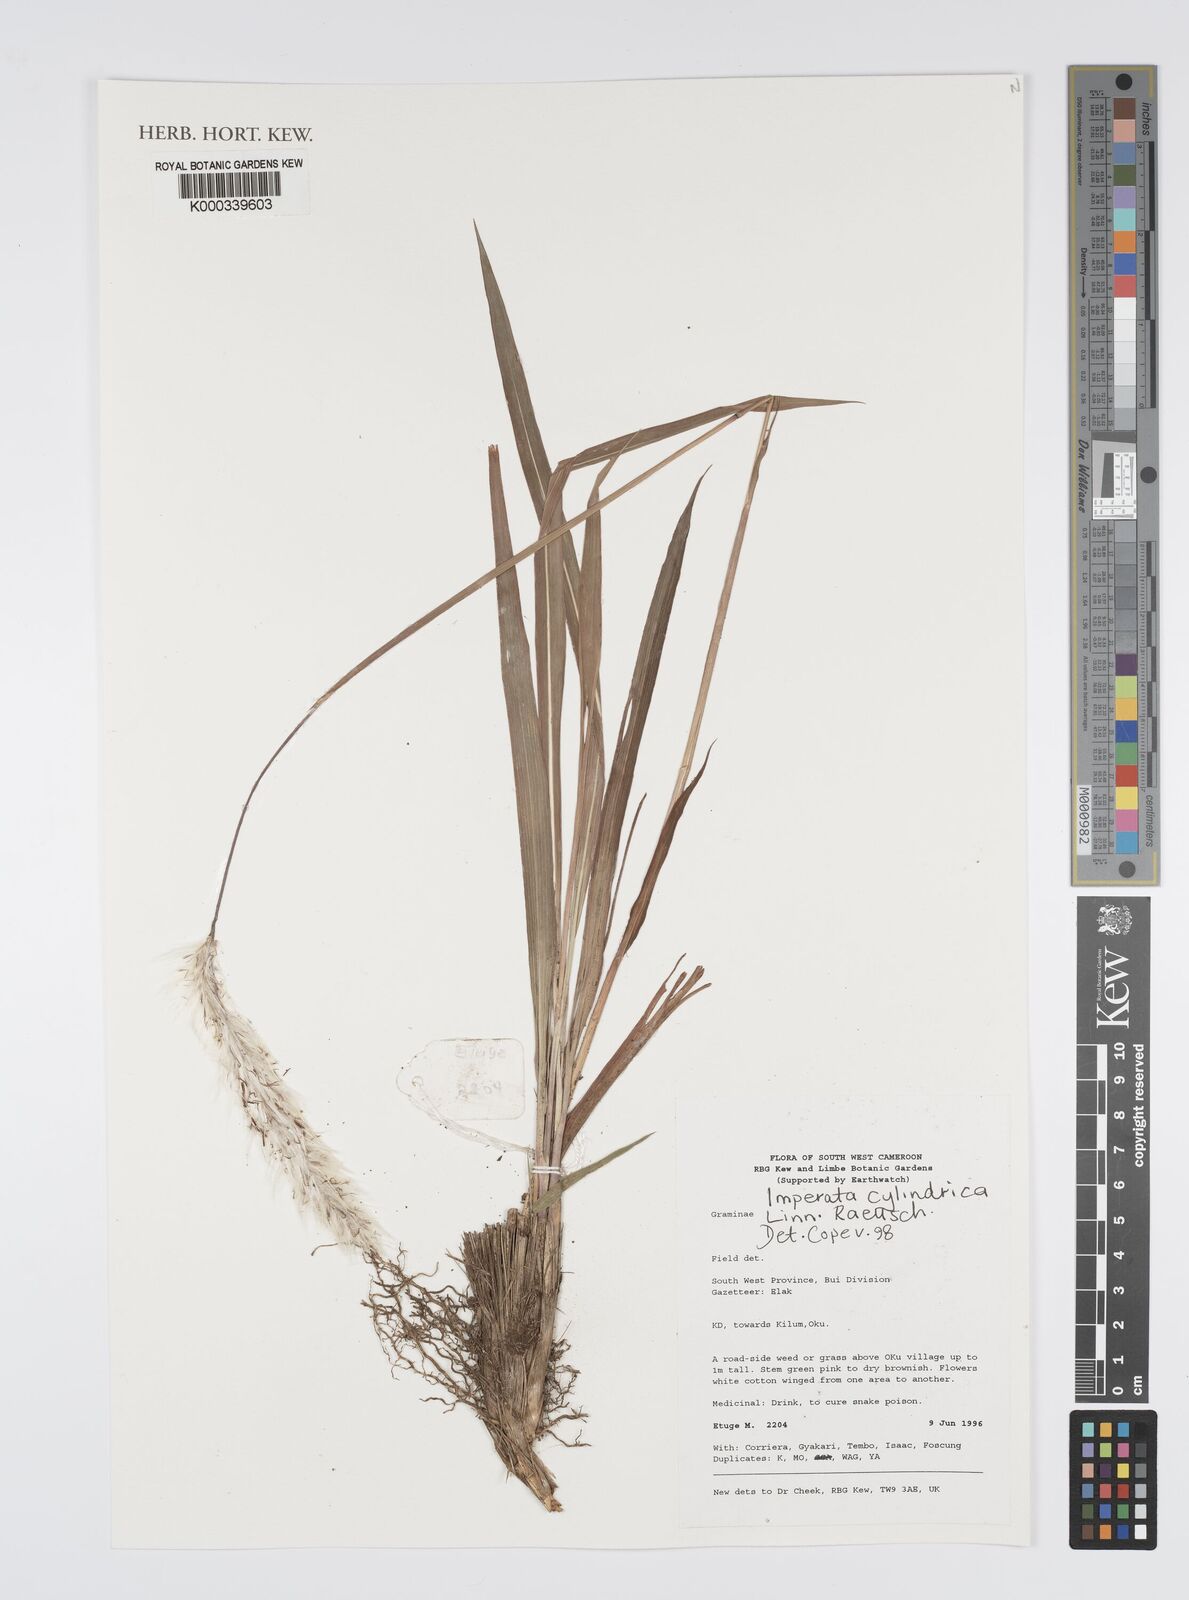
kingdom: Plantae
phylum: Tracheophyta
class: Liliopsida
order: Poales
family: Poaceae
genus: Imperata
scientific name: Imperata
